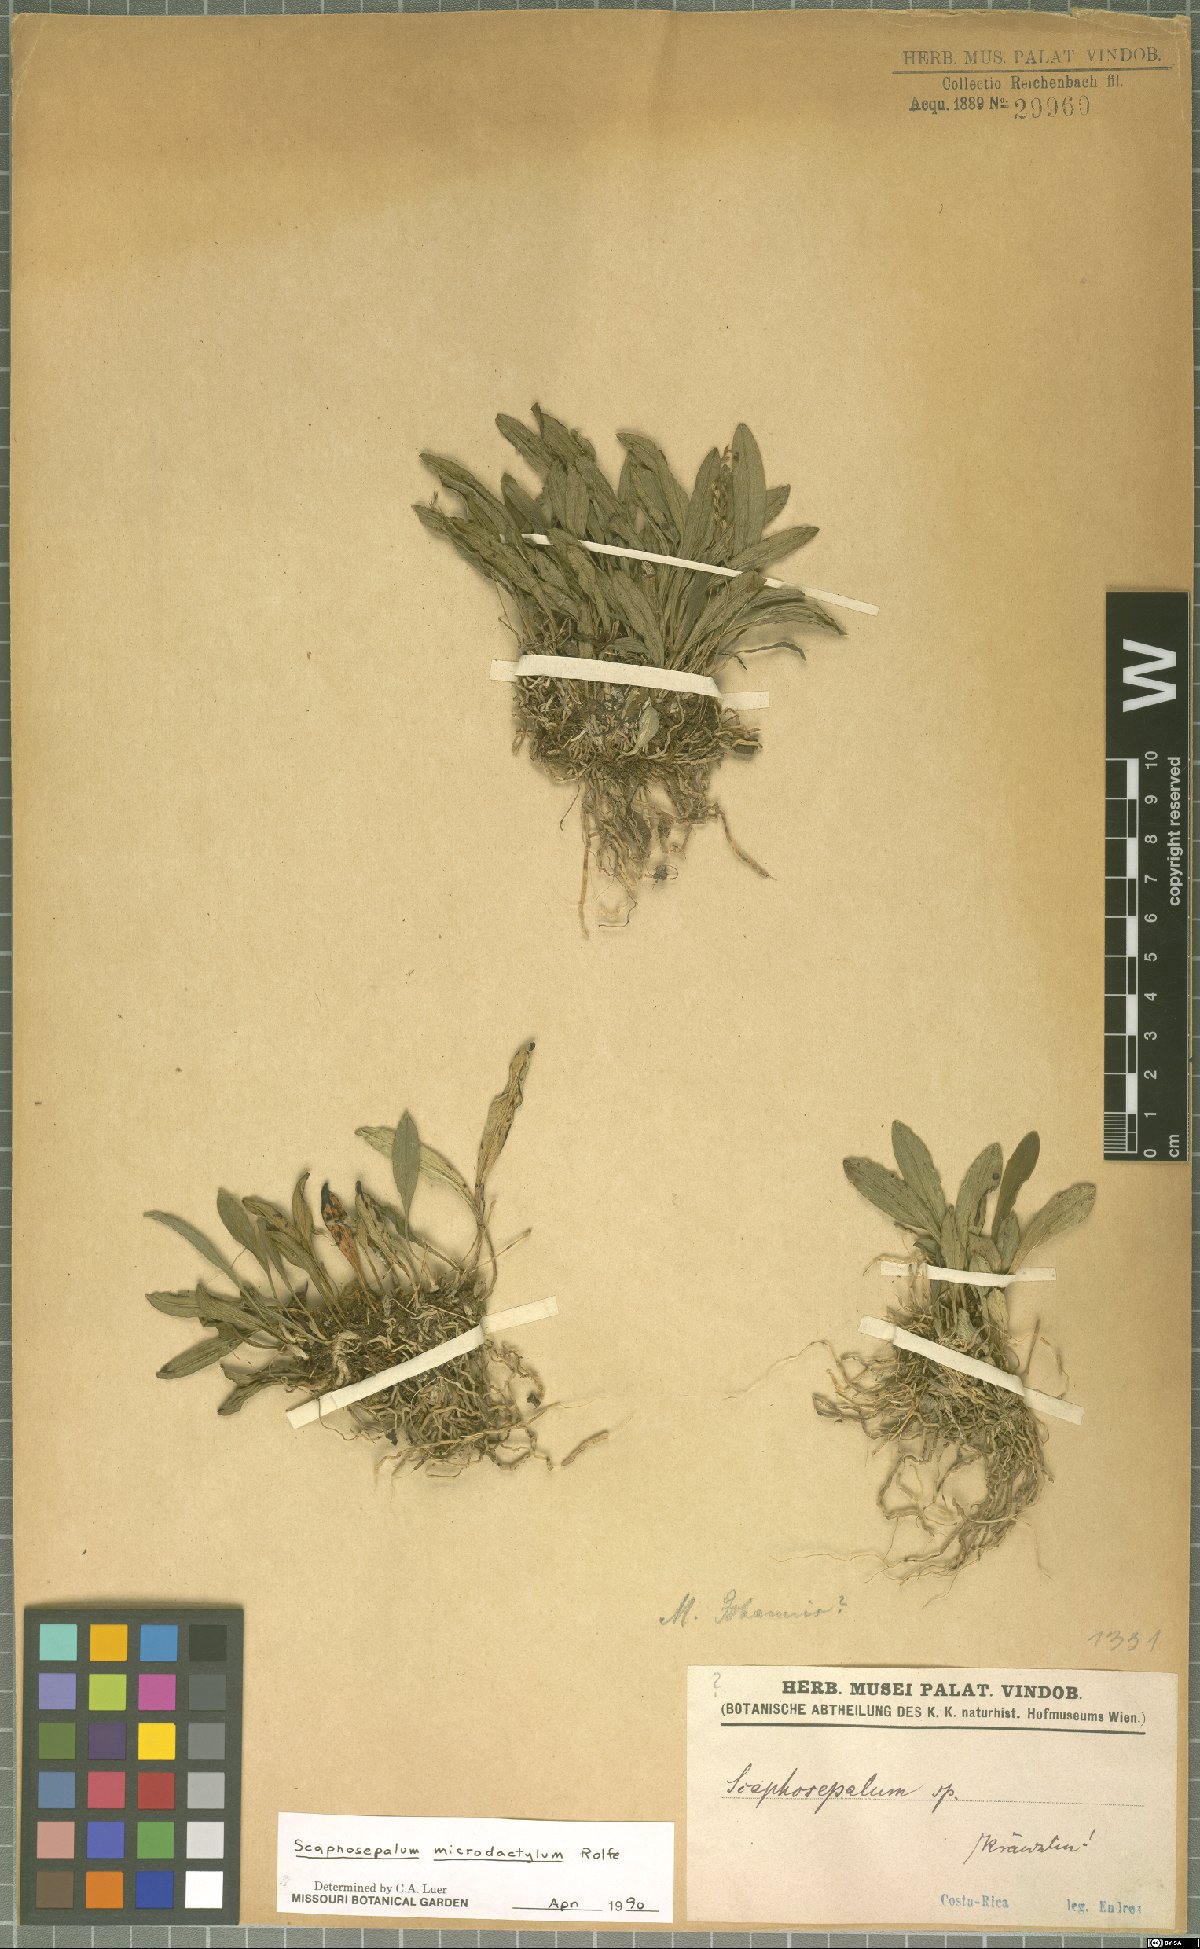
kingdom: Plantae
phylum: Tracheophyta
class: Liliopsida
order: Asparagales
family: Orchidaceae
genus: Scaphosepalum
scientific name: Scaphosepalum microdactylum
